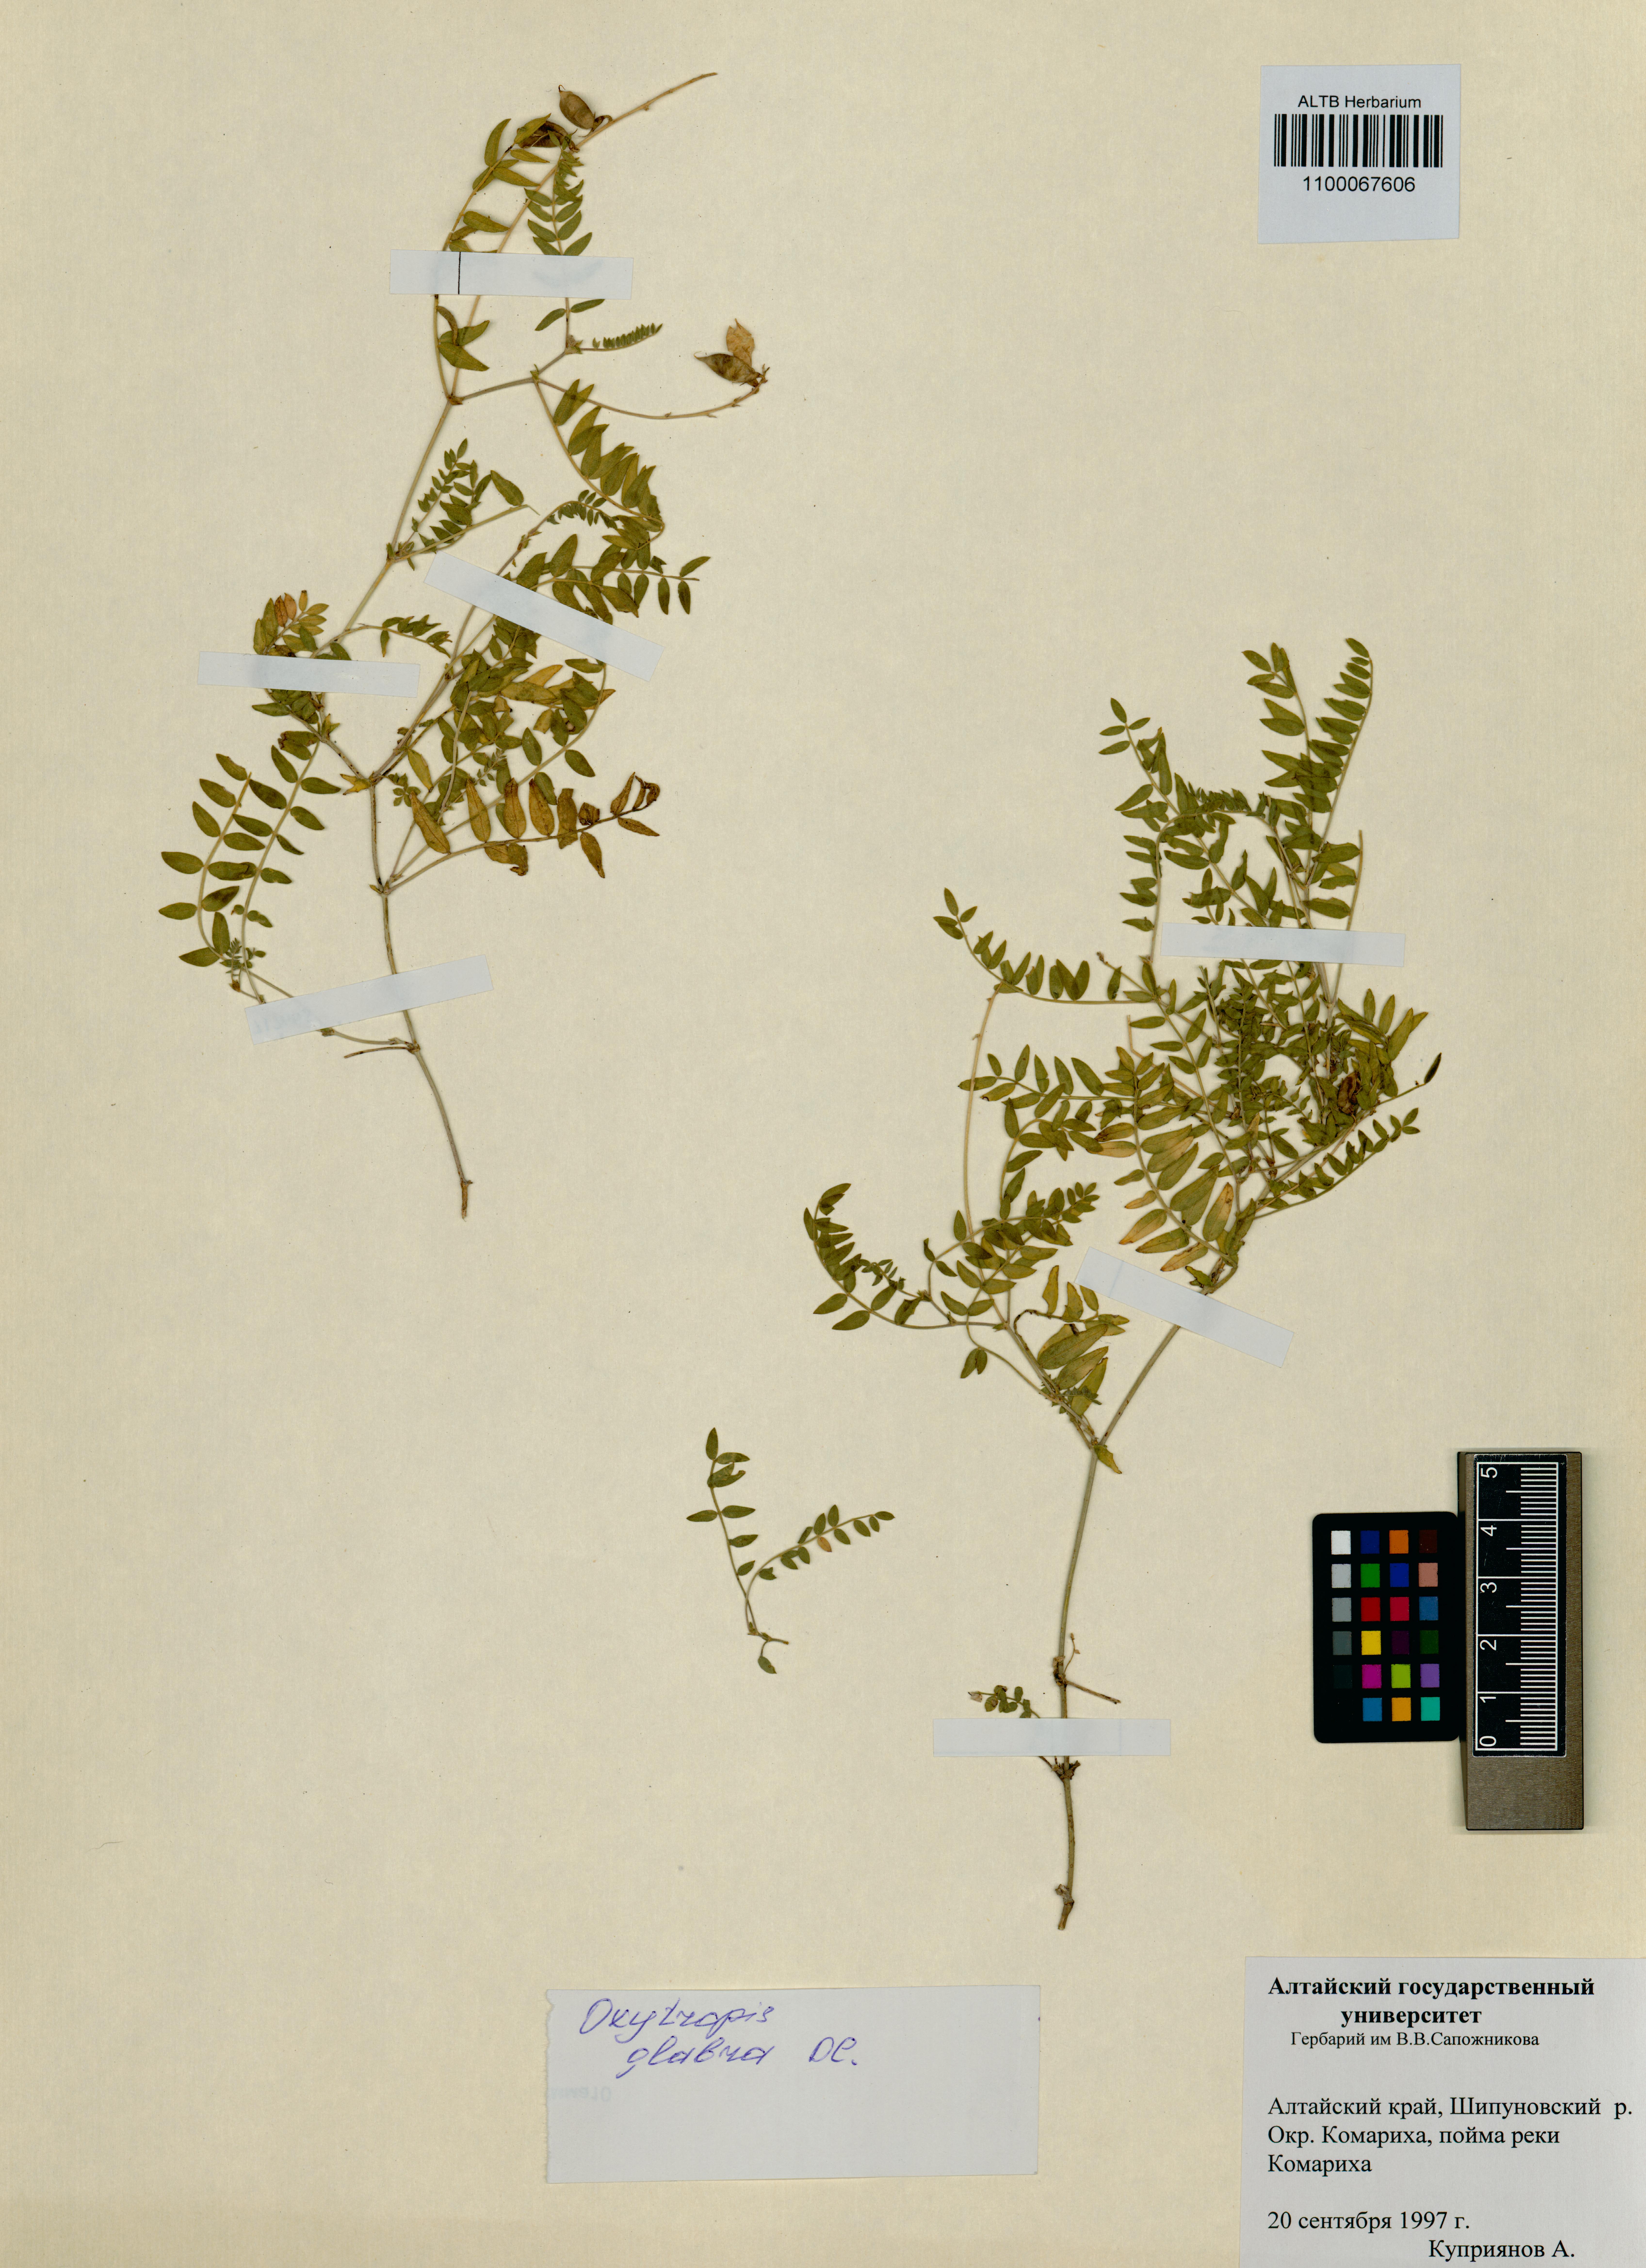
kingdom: Plantae
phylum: Tracheophyta
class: Magnoliopsida
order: Fabales
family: Fabaceae
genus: Oxytropis
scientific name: Oxytropis glabra
